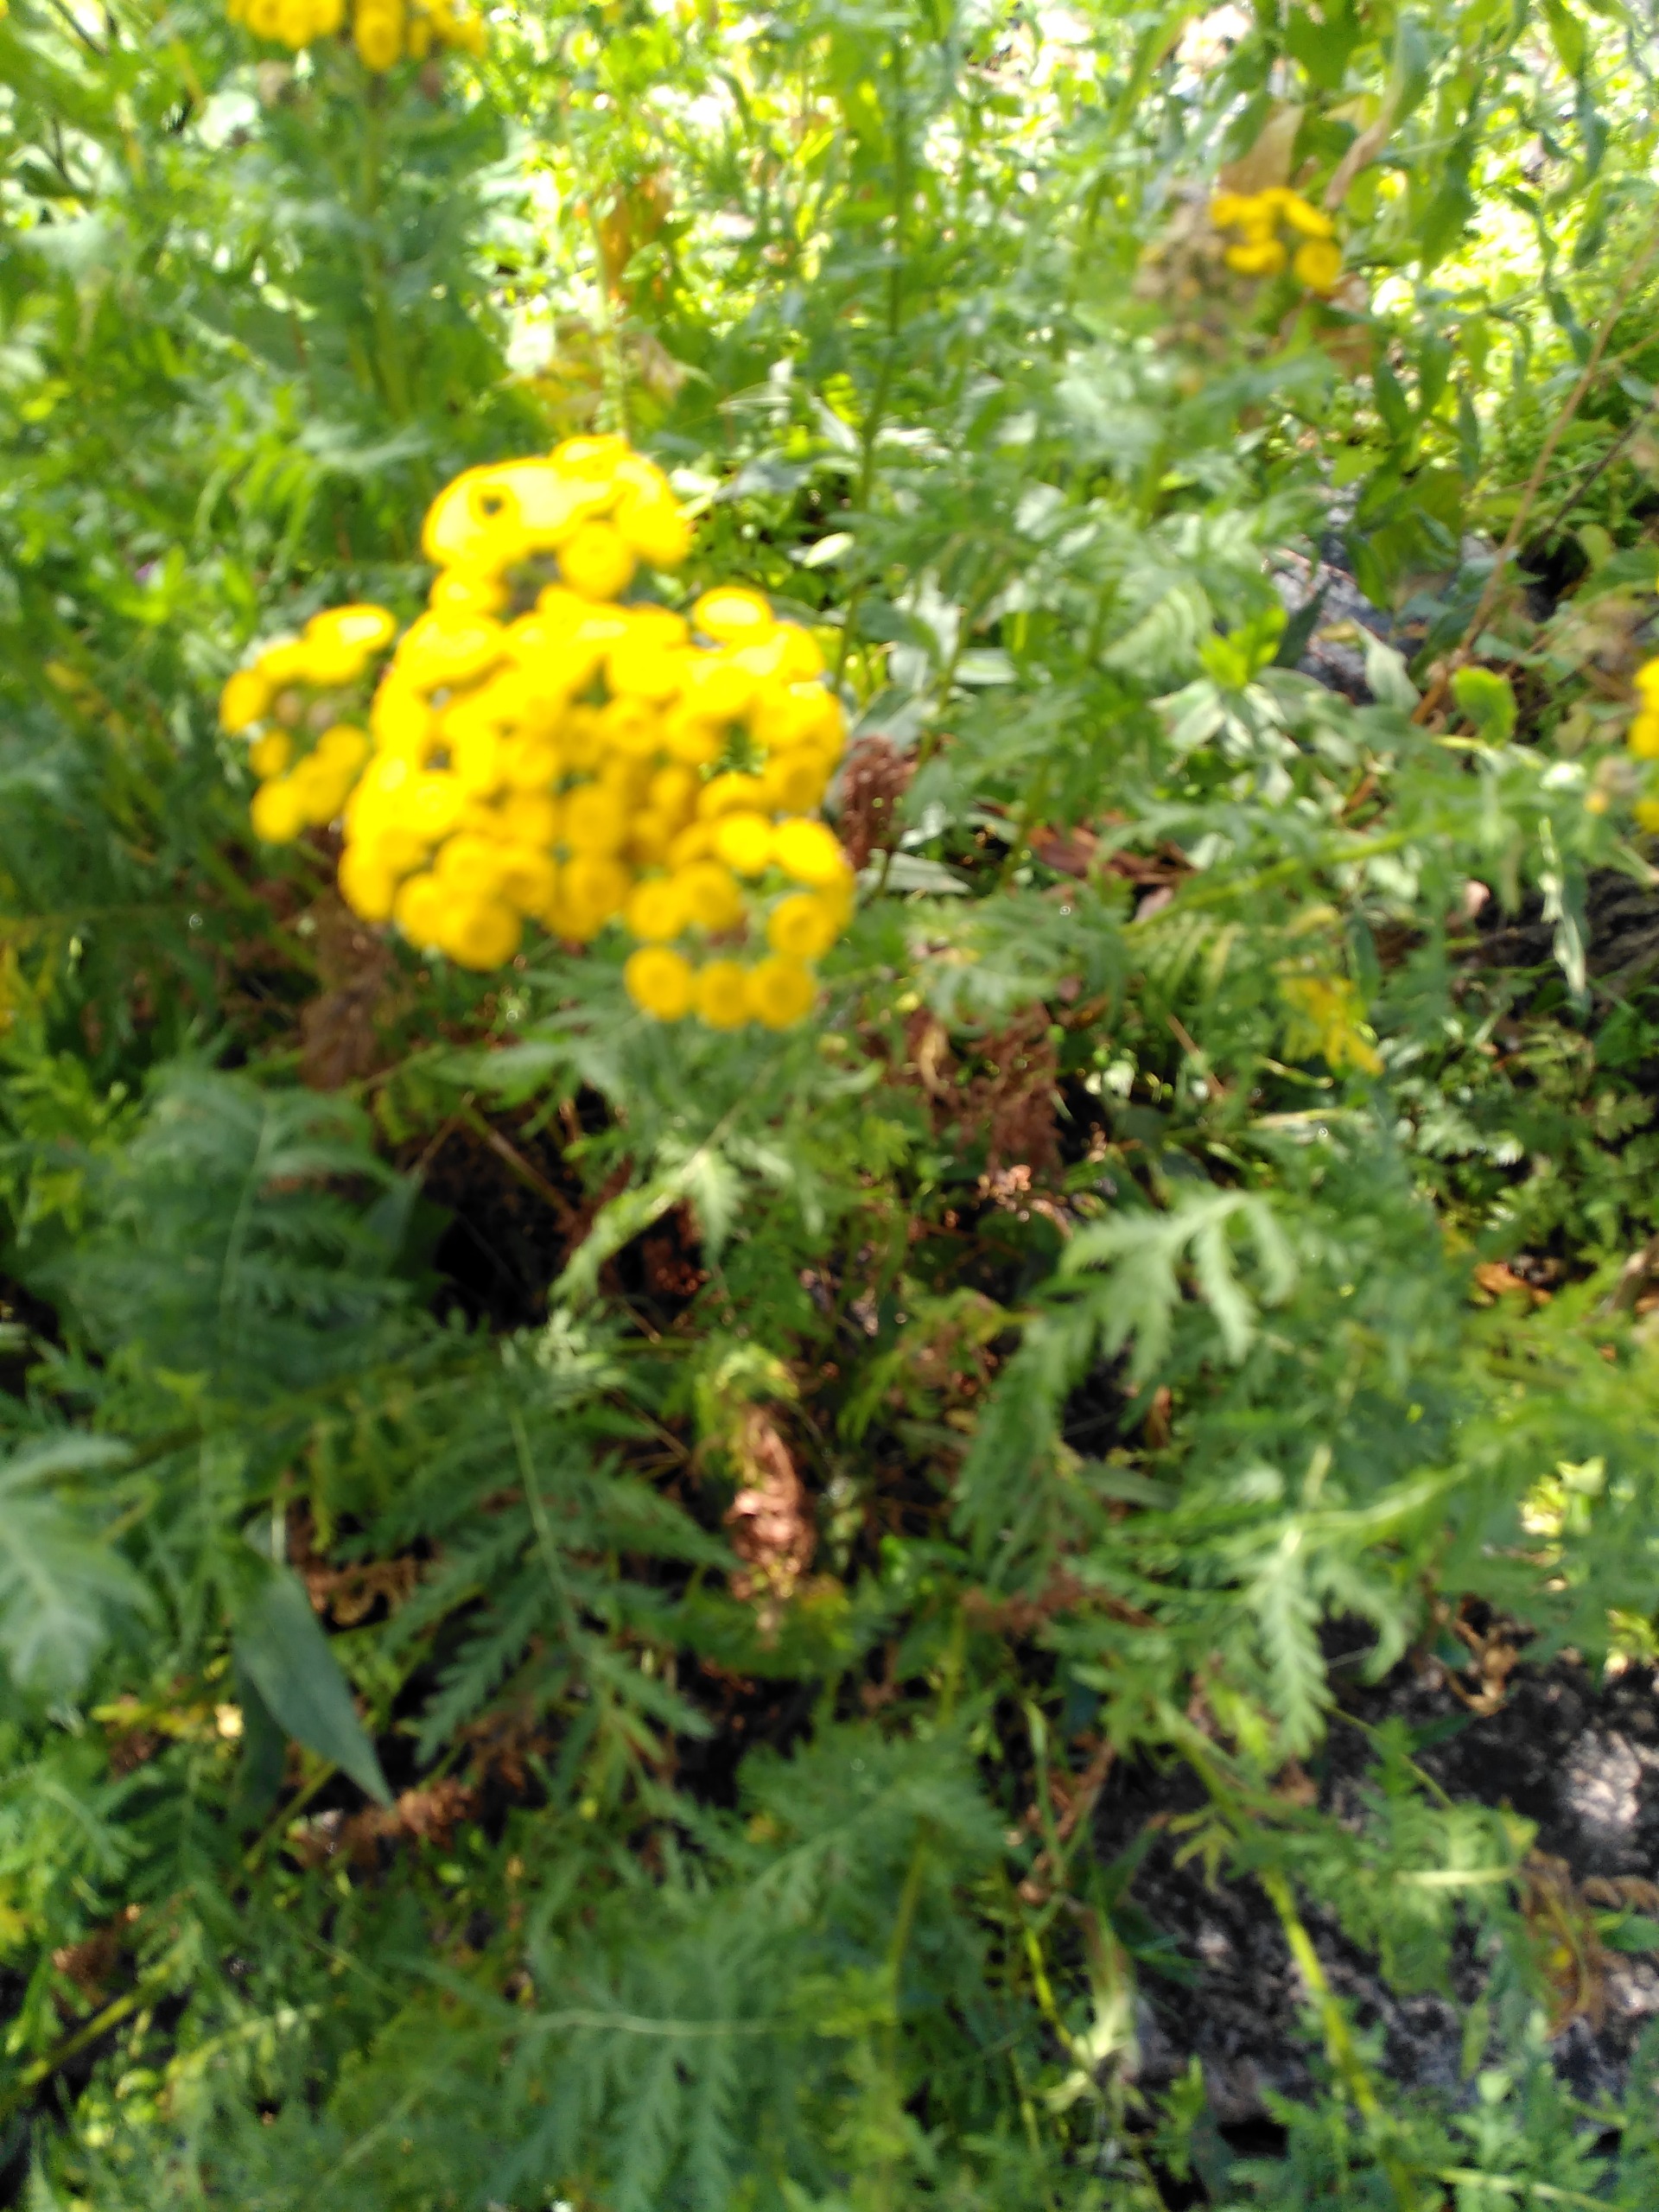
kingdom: Plantae
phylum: Tracheophyta
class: Magnoliopsida
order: Asterales
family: Asteraceae
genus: Tanacetum
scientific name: Tanacetum vulgare
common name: Rejnfan
